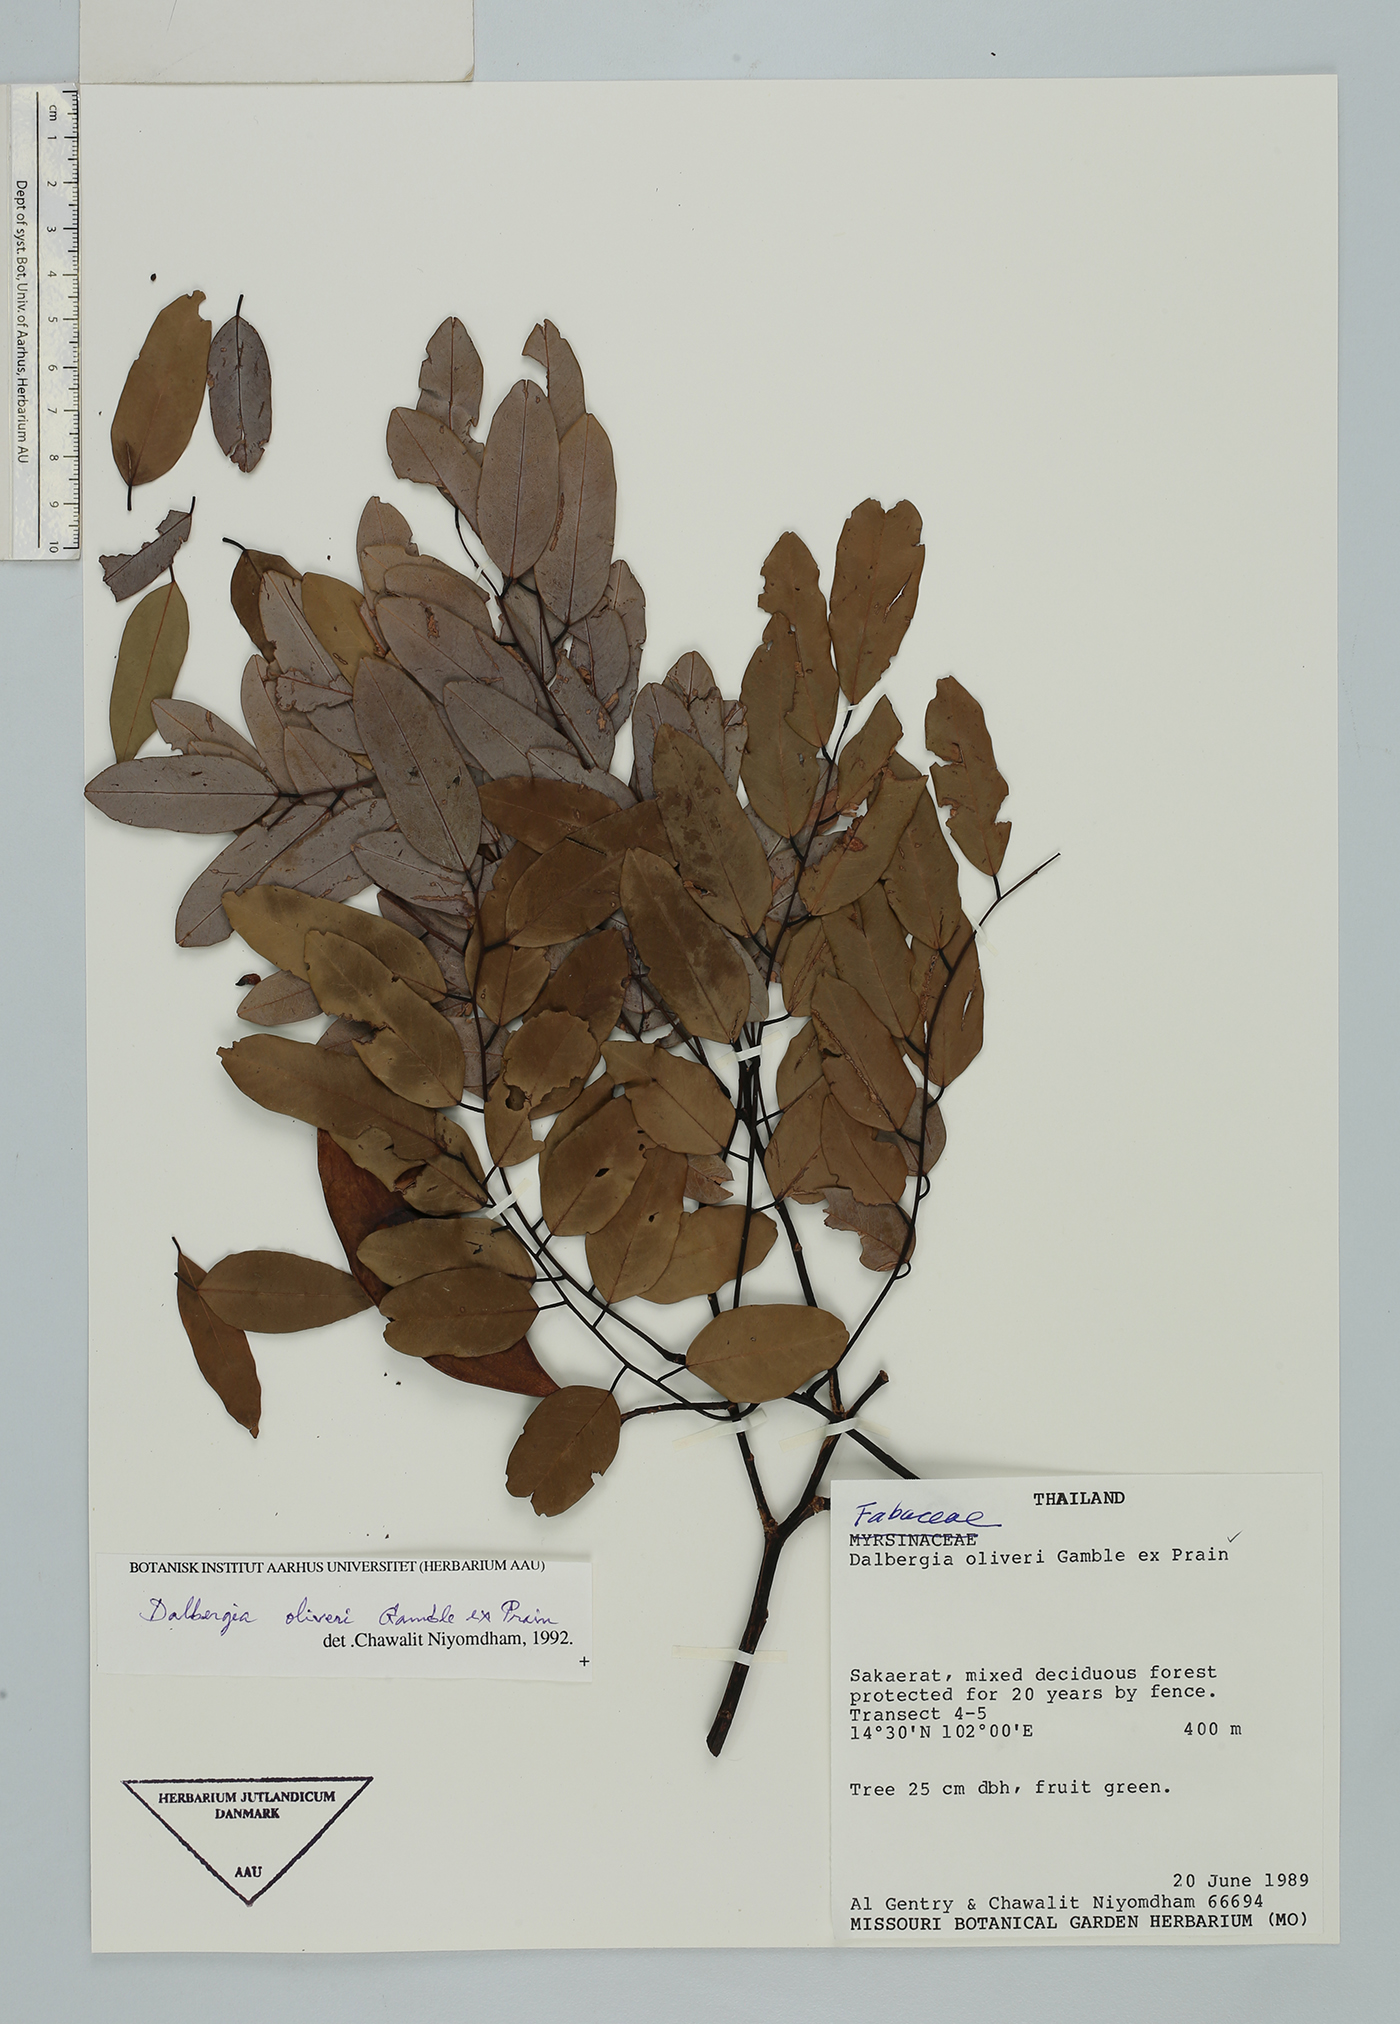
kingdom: Plantae
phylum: Tracheophyta
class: Magnoliopsida
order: Fabales
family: Fabaceae
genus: Dalbergia
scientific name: Dalbergia oliveri
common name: Burmese rosewood
